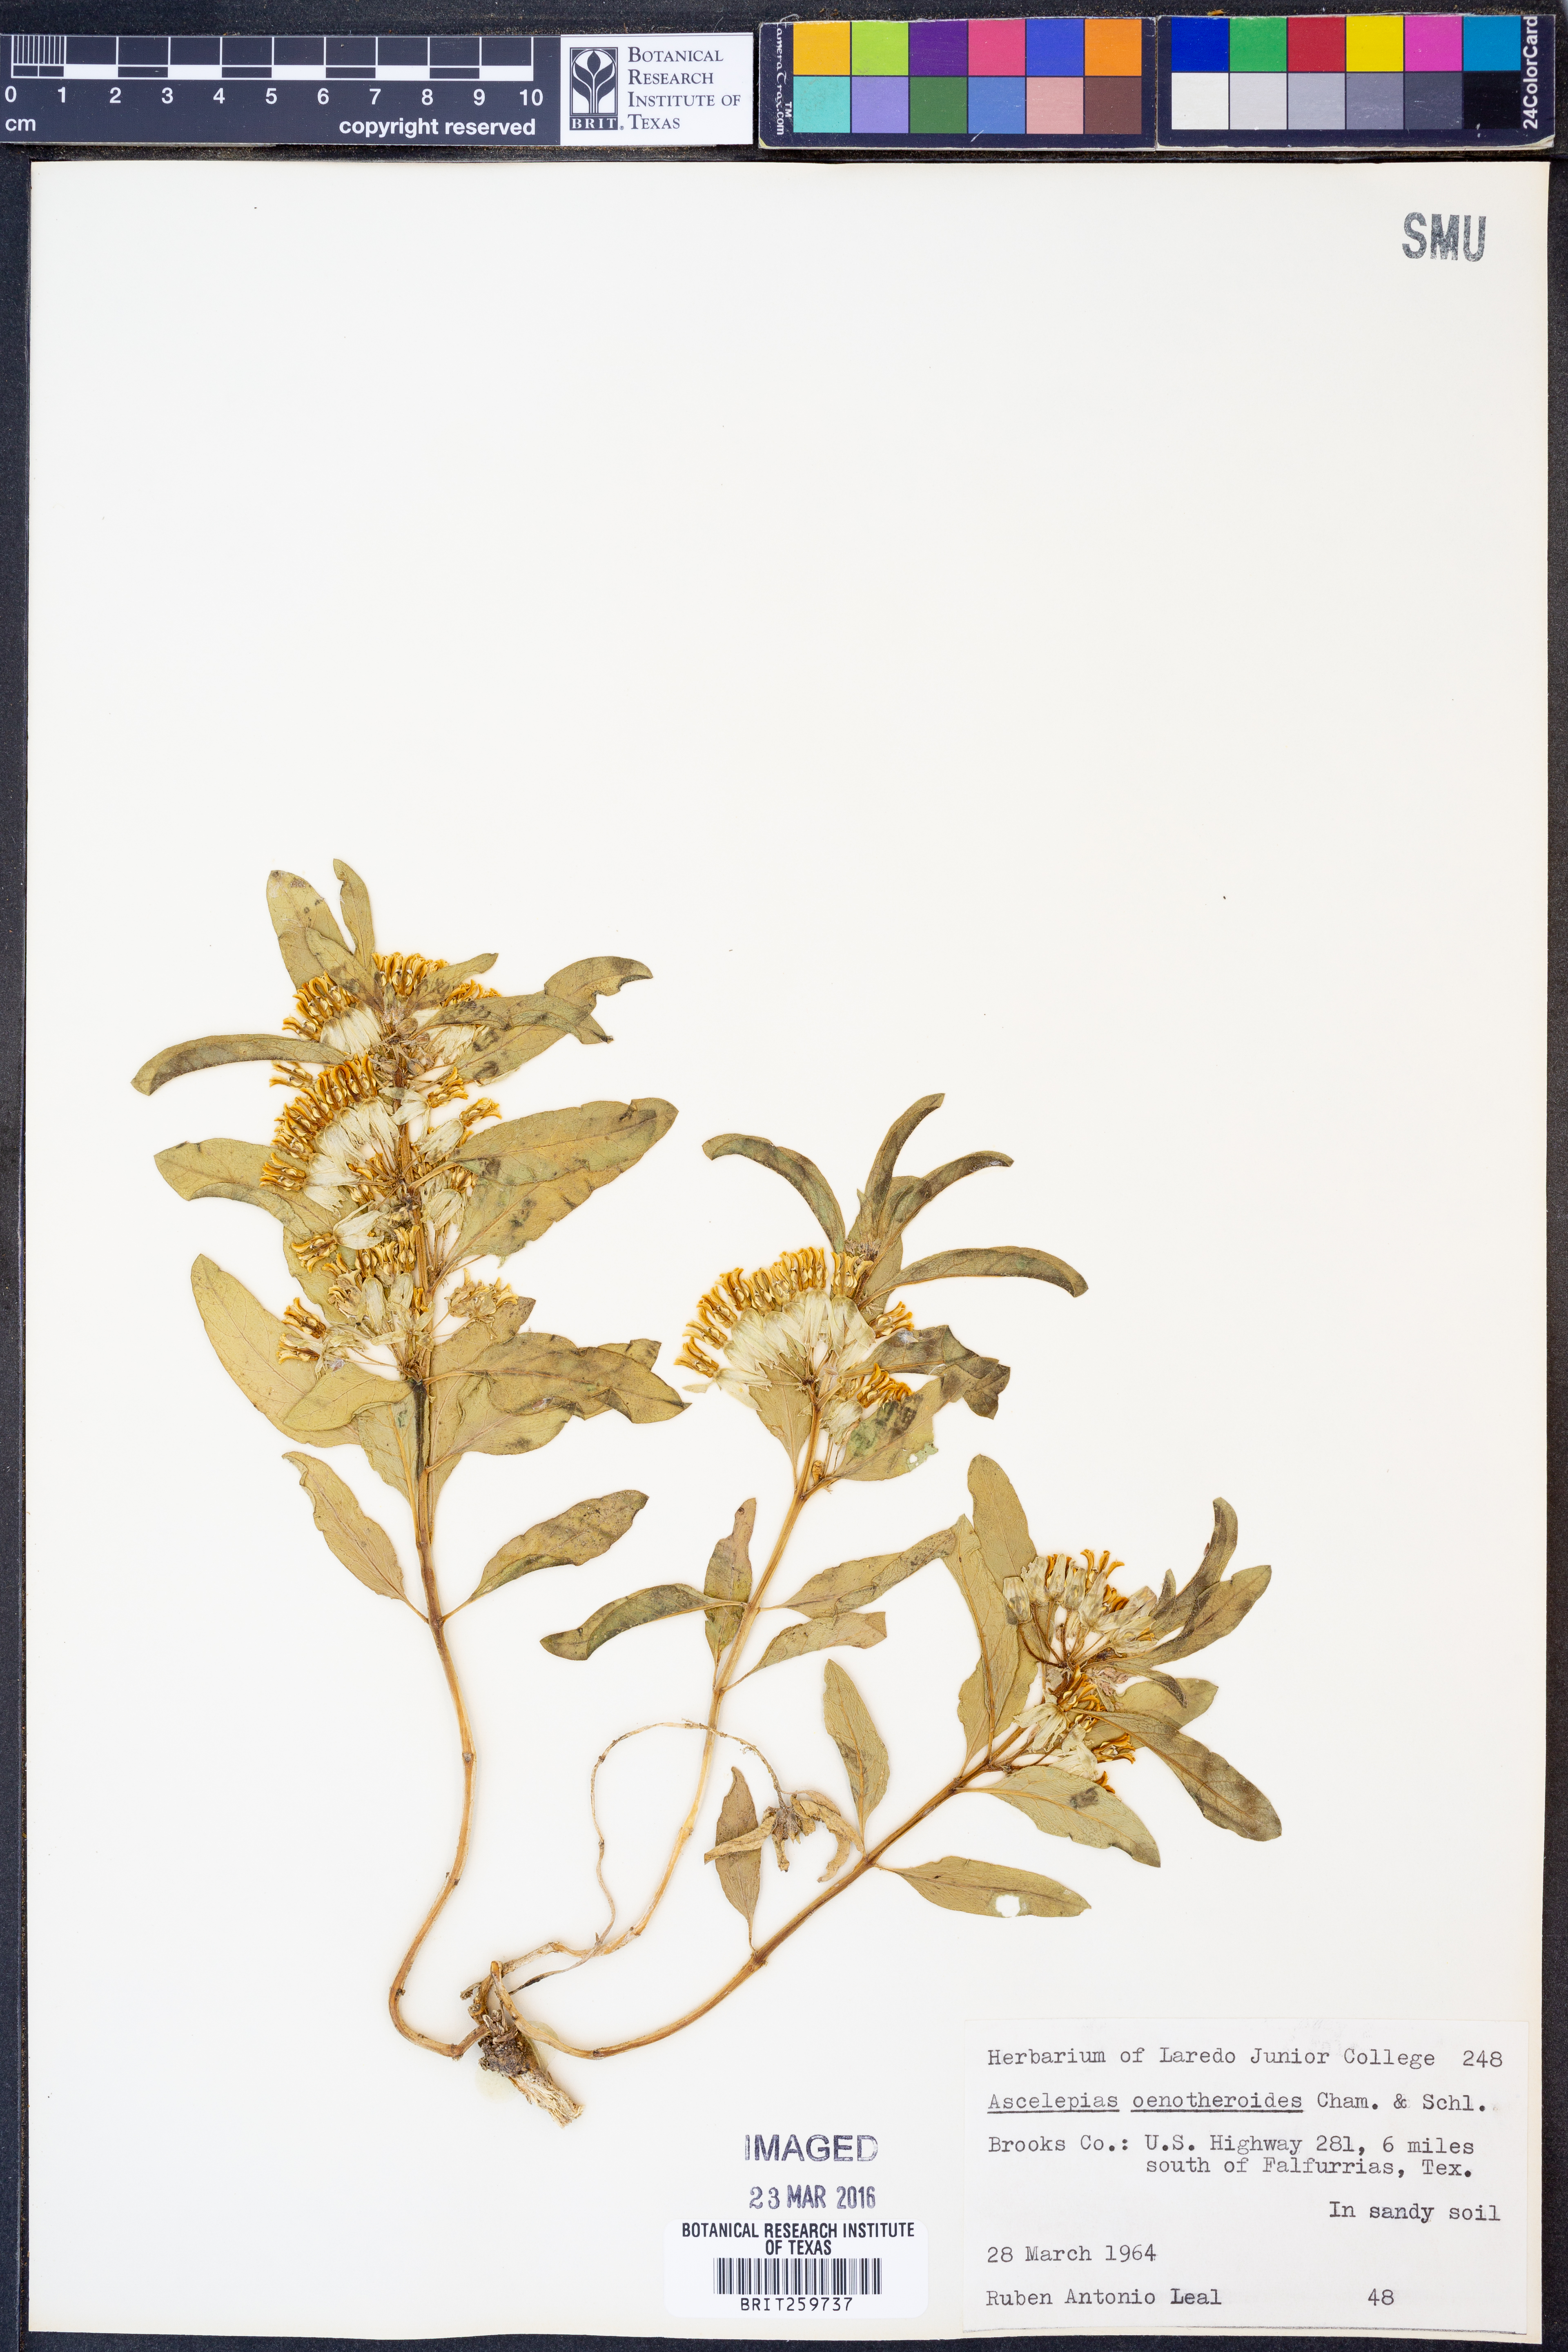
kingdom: Plantae
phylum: Tracheophyta
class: Magnoliopsida
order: Gentianales
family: Apocynaceae
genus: Asclepias
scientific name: Asclepias oenotheroides
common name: Zizotes milkweed
